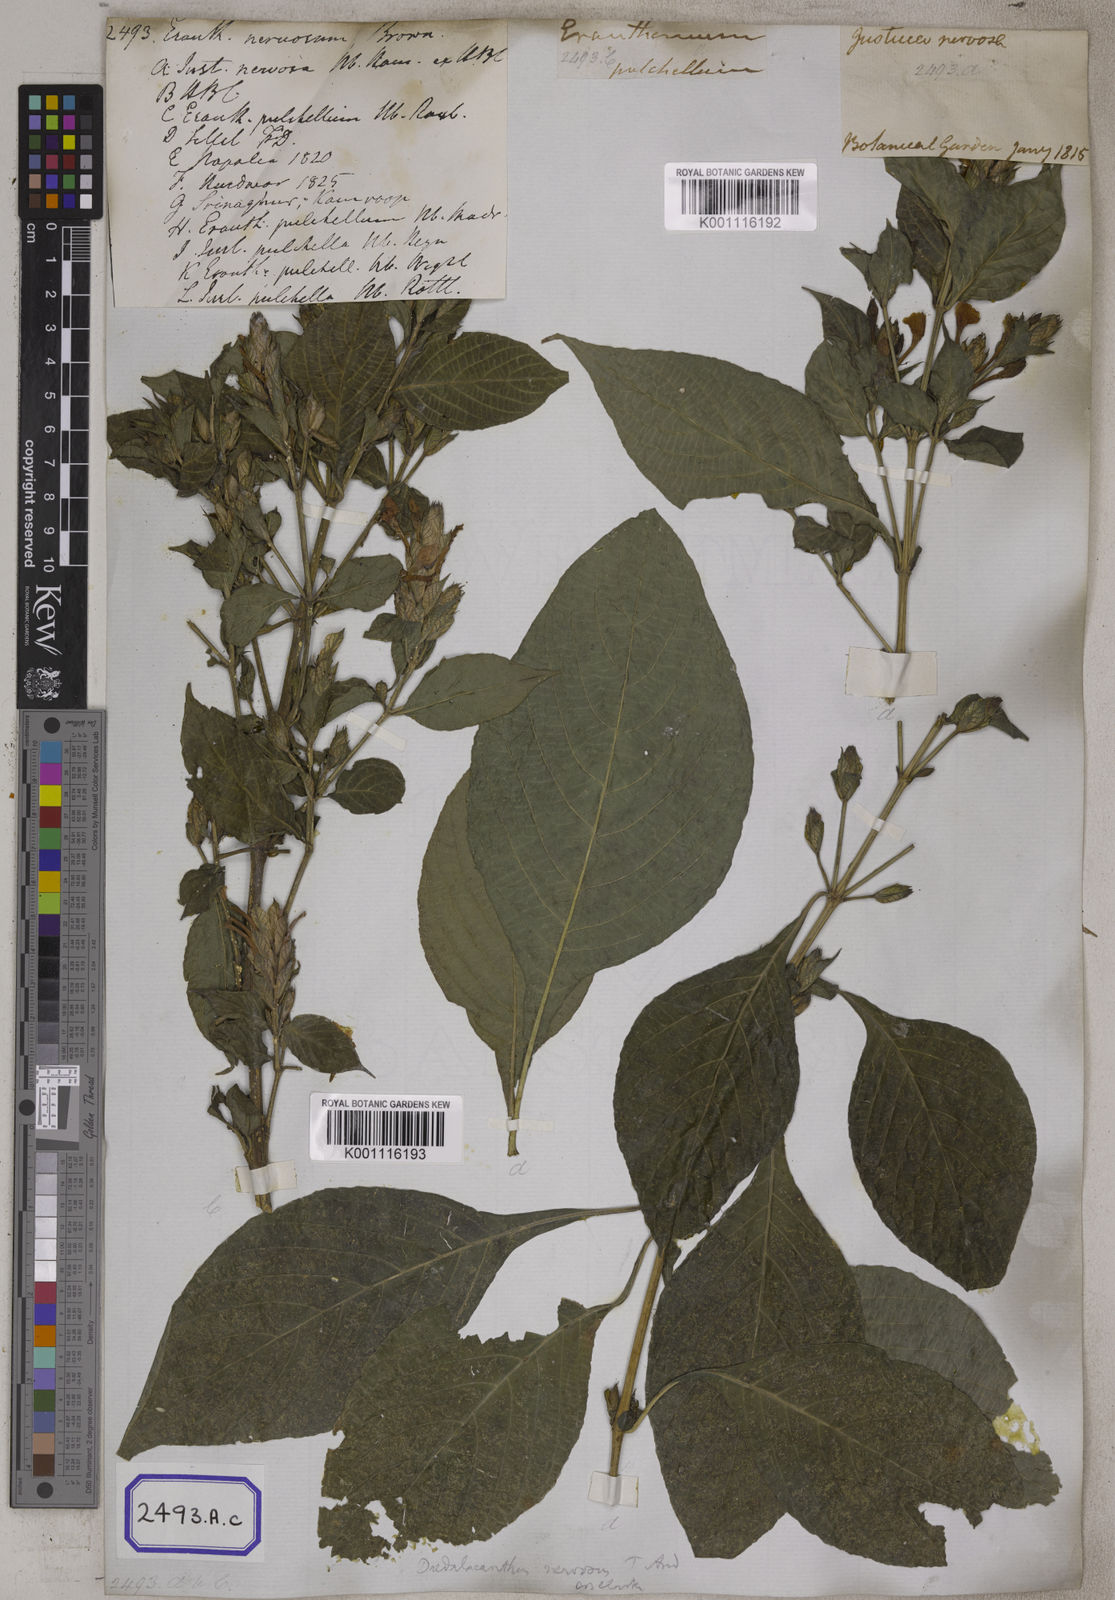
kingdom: Plantae
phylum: Tracheophyta
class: Magnoliopsida
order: Lamiales
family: Acanthaceae
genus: Eranthemum
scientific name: Eranthemum
